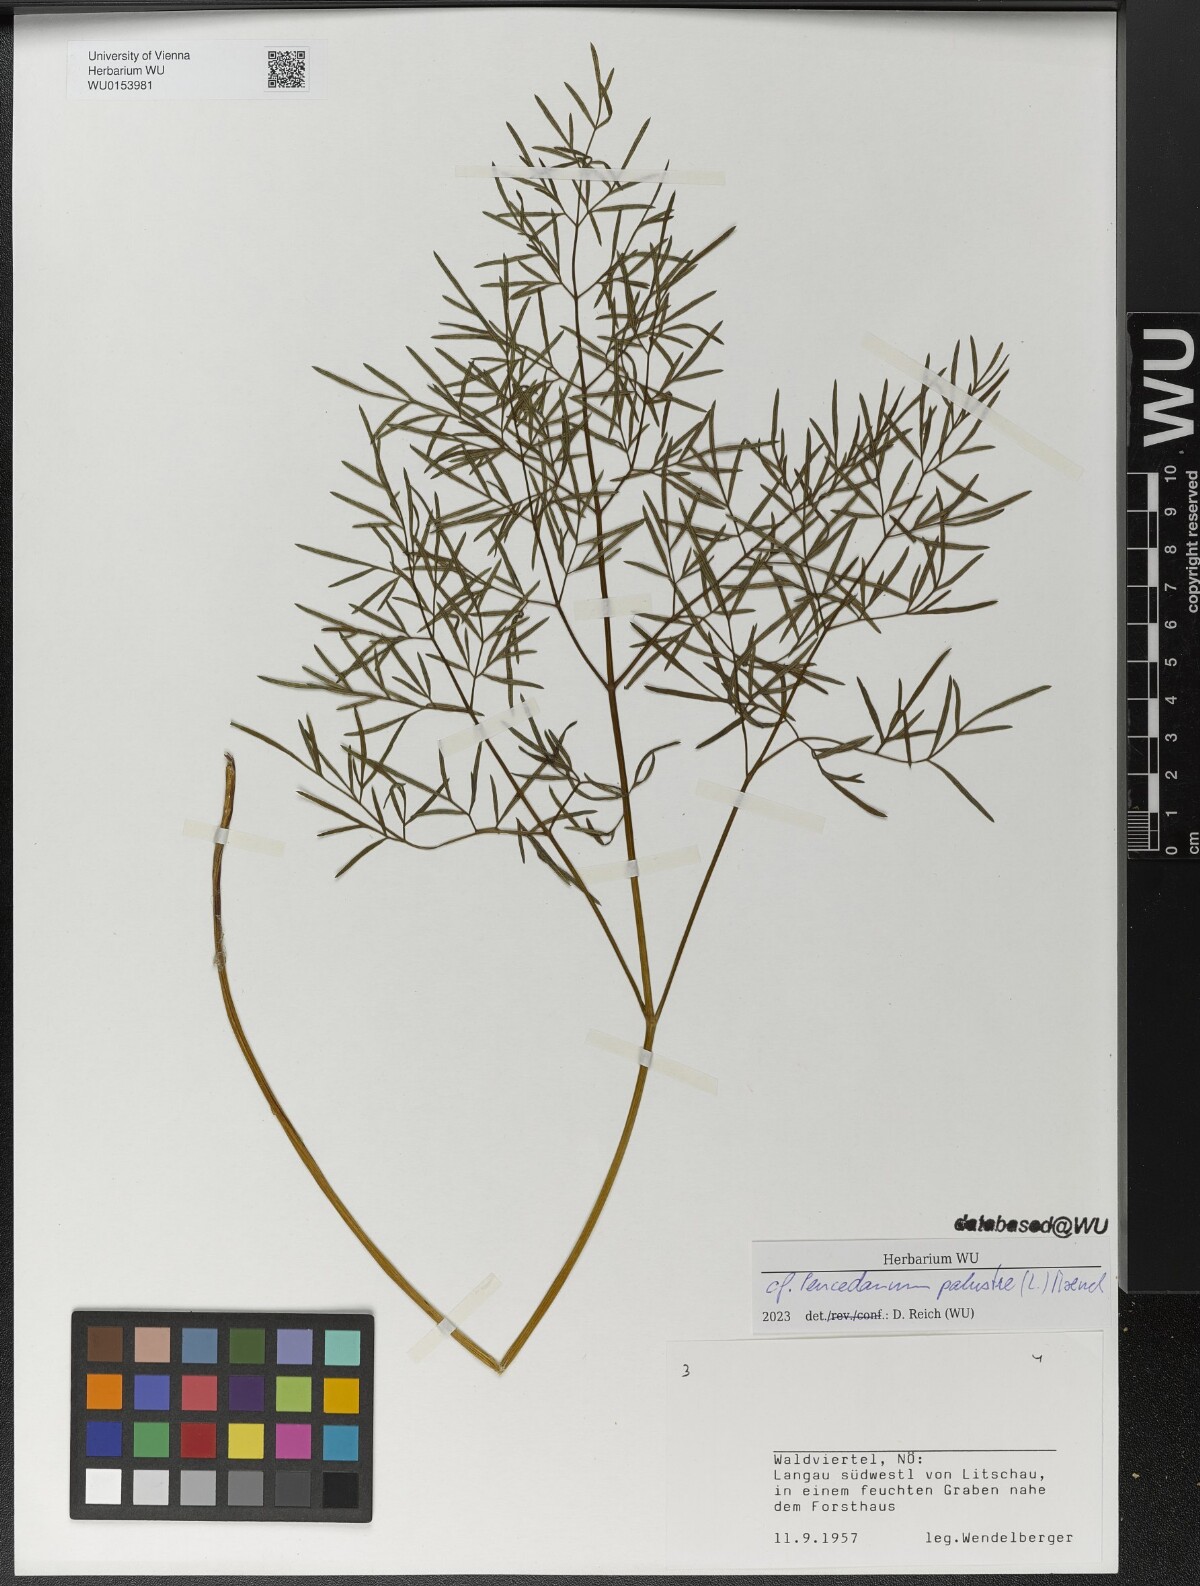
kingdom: Plantae
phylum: Tracheophyta
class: Magnoliopsida
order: Apiales
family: Apiaceae
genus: Thysselinum
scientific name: Thysselinum palustre
